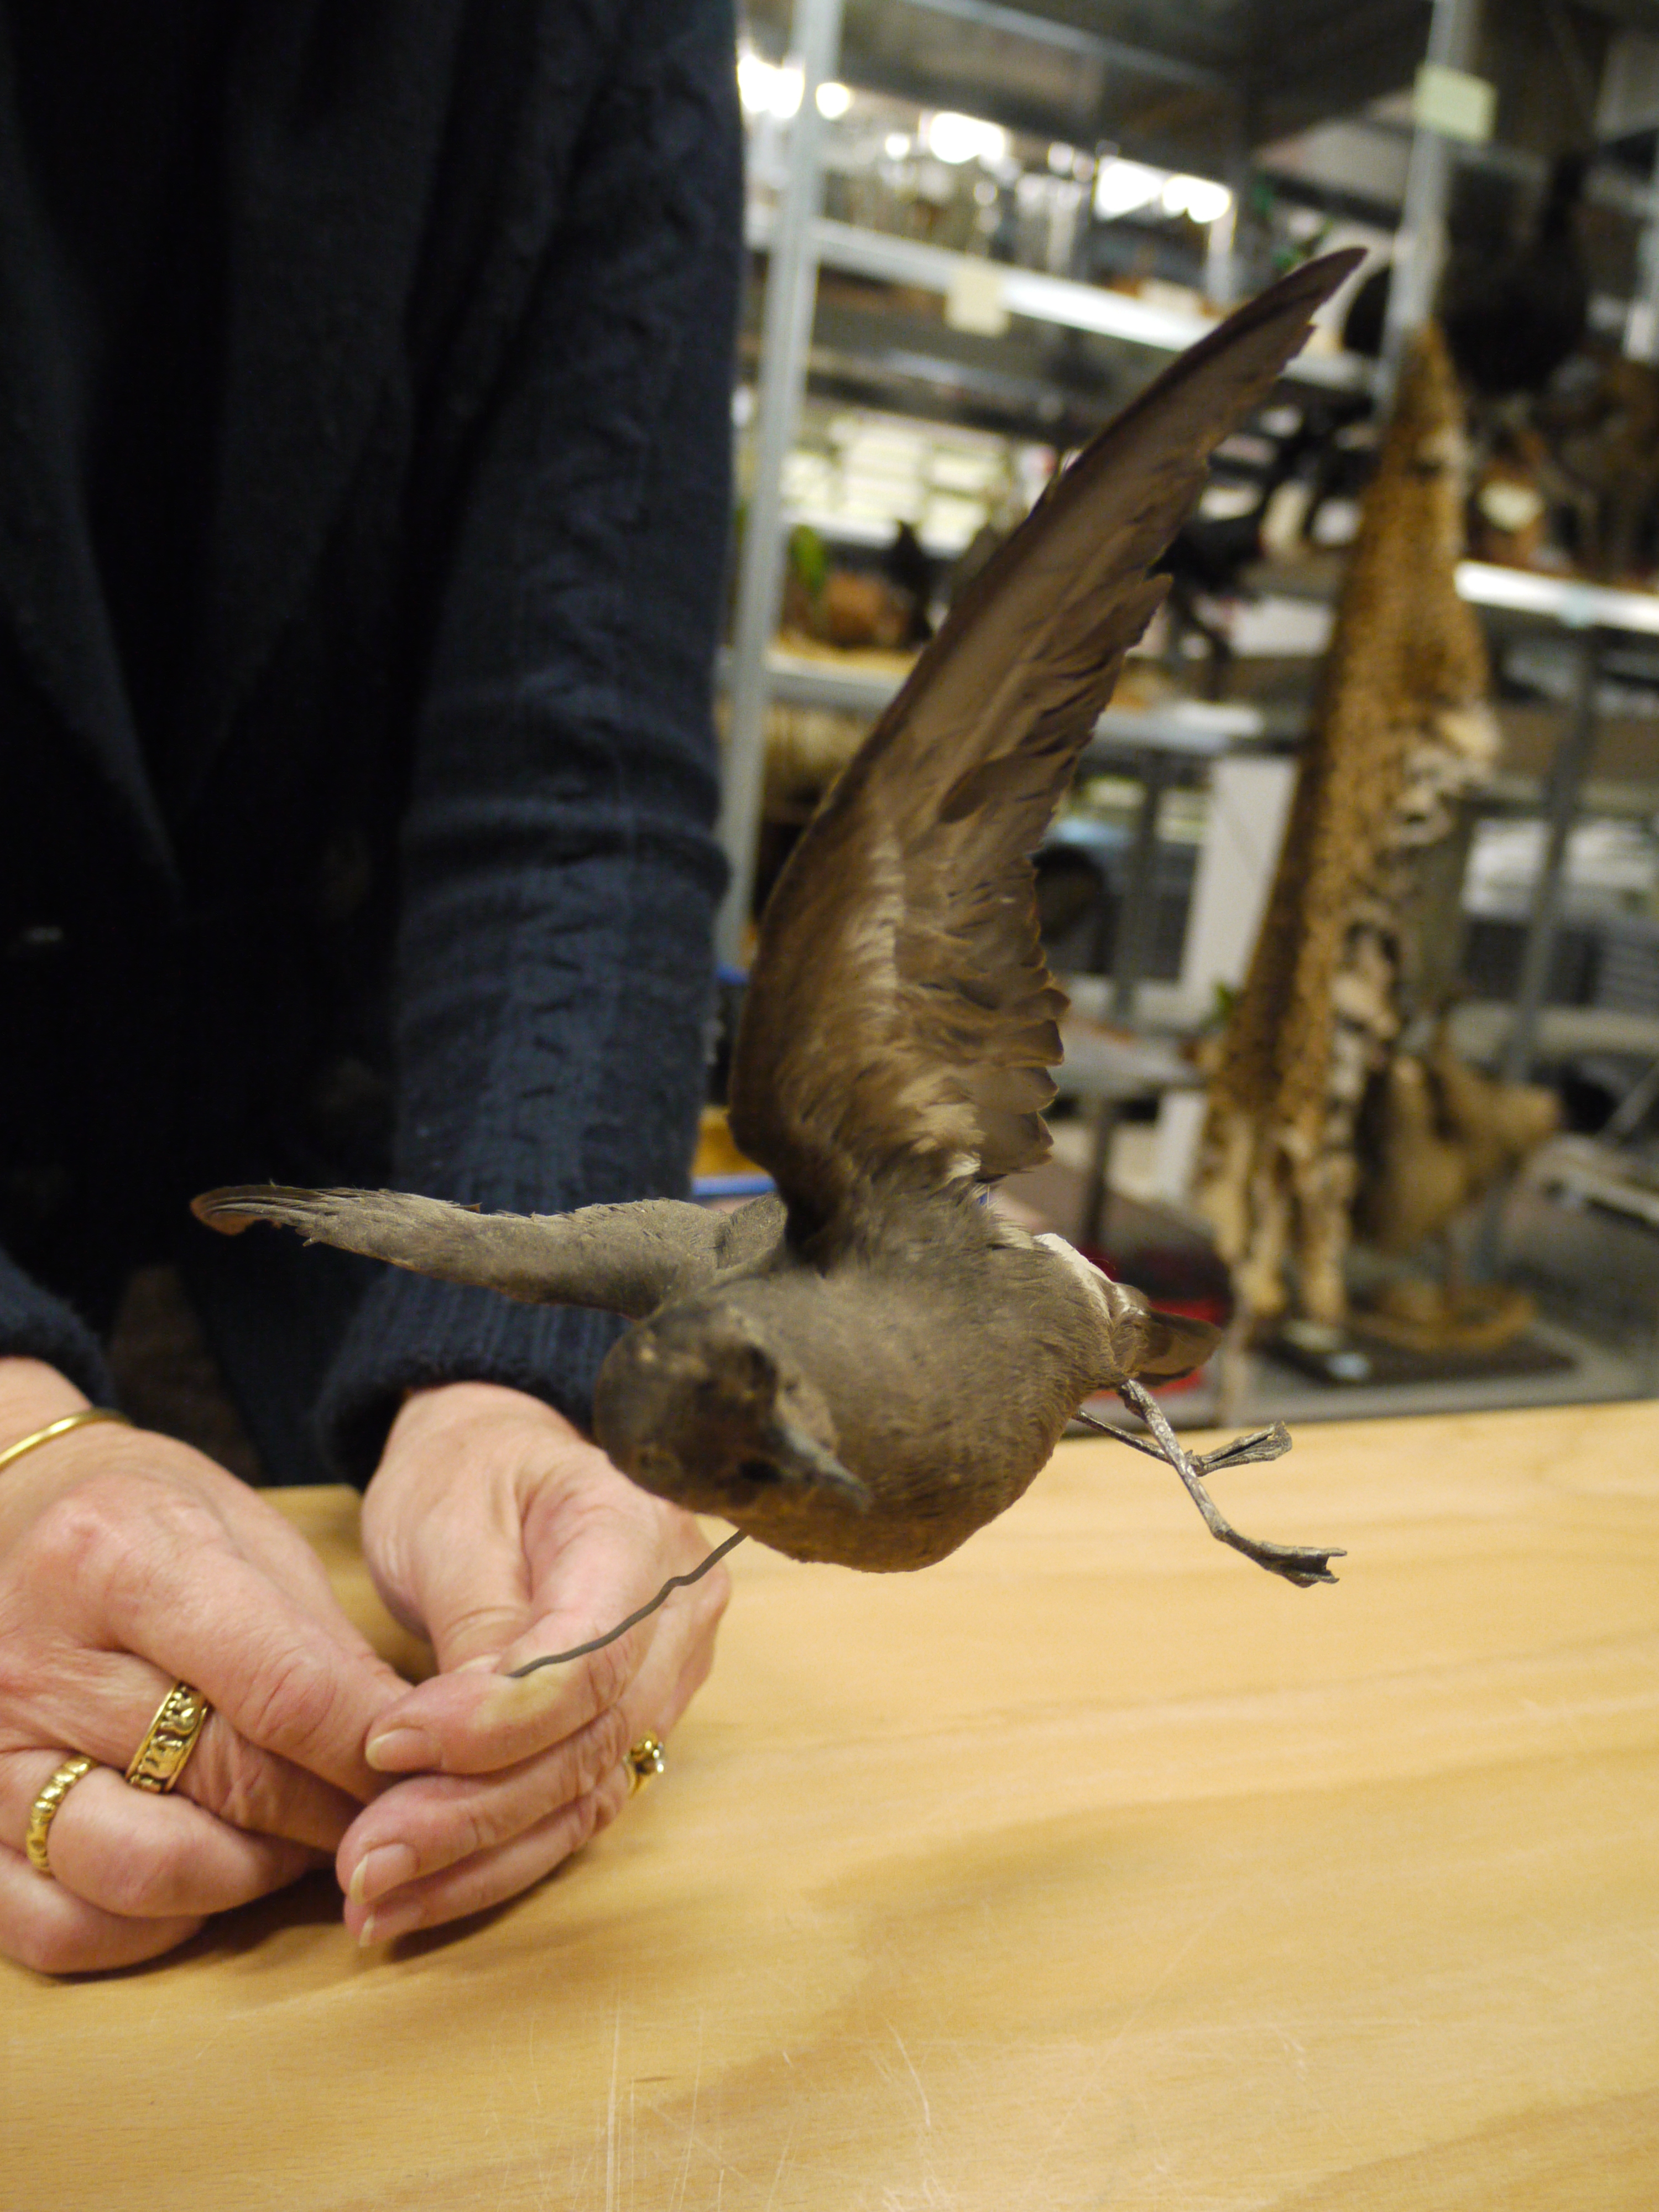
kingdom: Animalia
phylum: Chordata
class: Aves
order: Procellariiformes
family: Hydrobatidae
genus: Hydrobates
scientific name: Hydrobates pelagicus
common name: European storm-petrel
